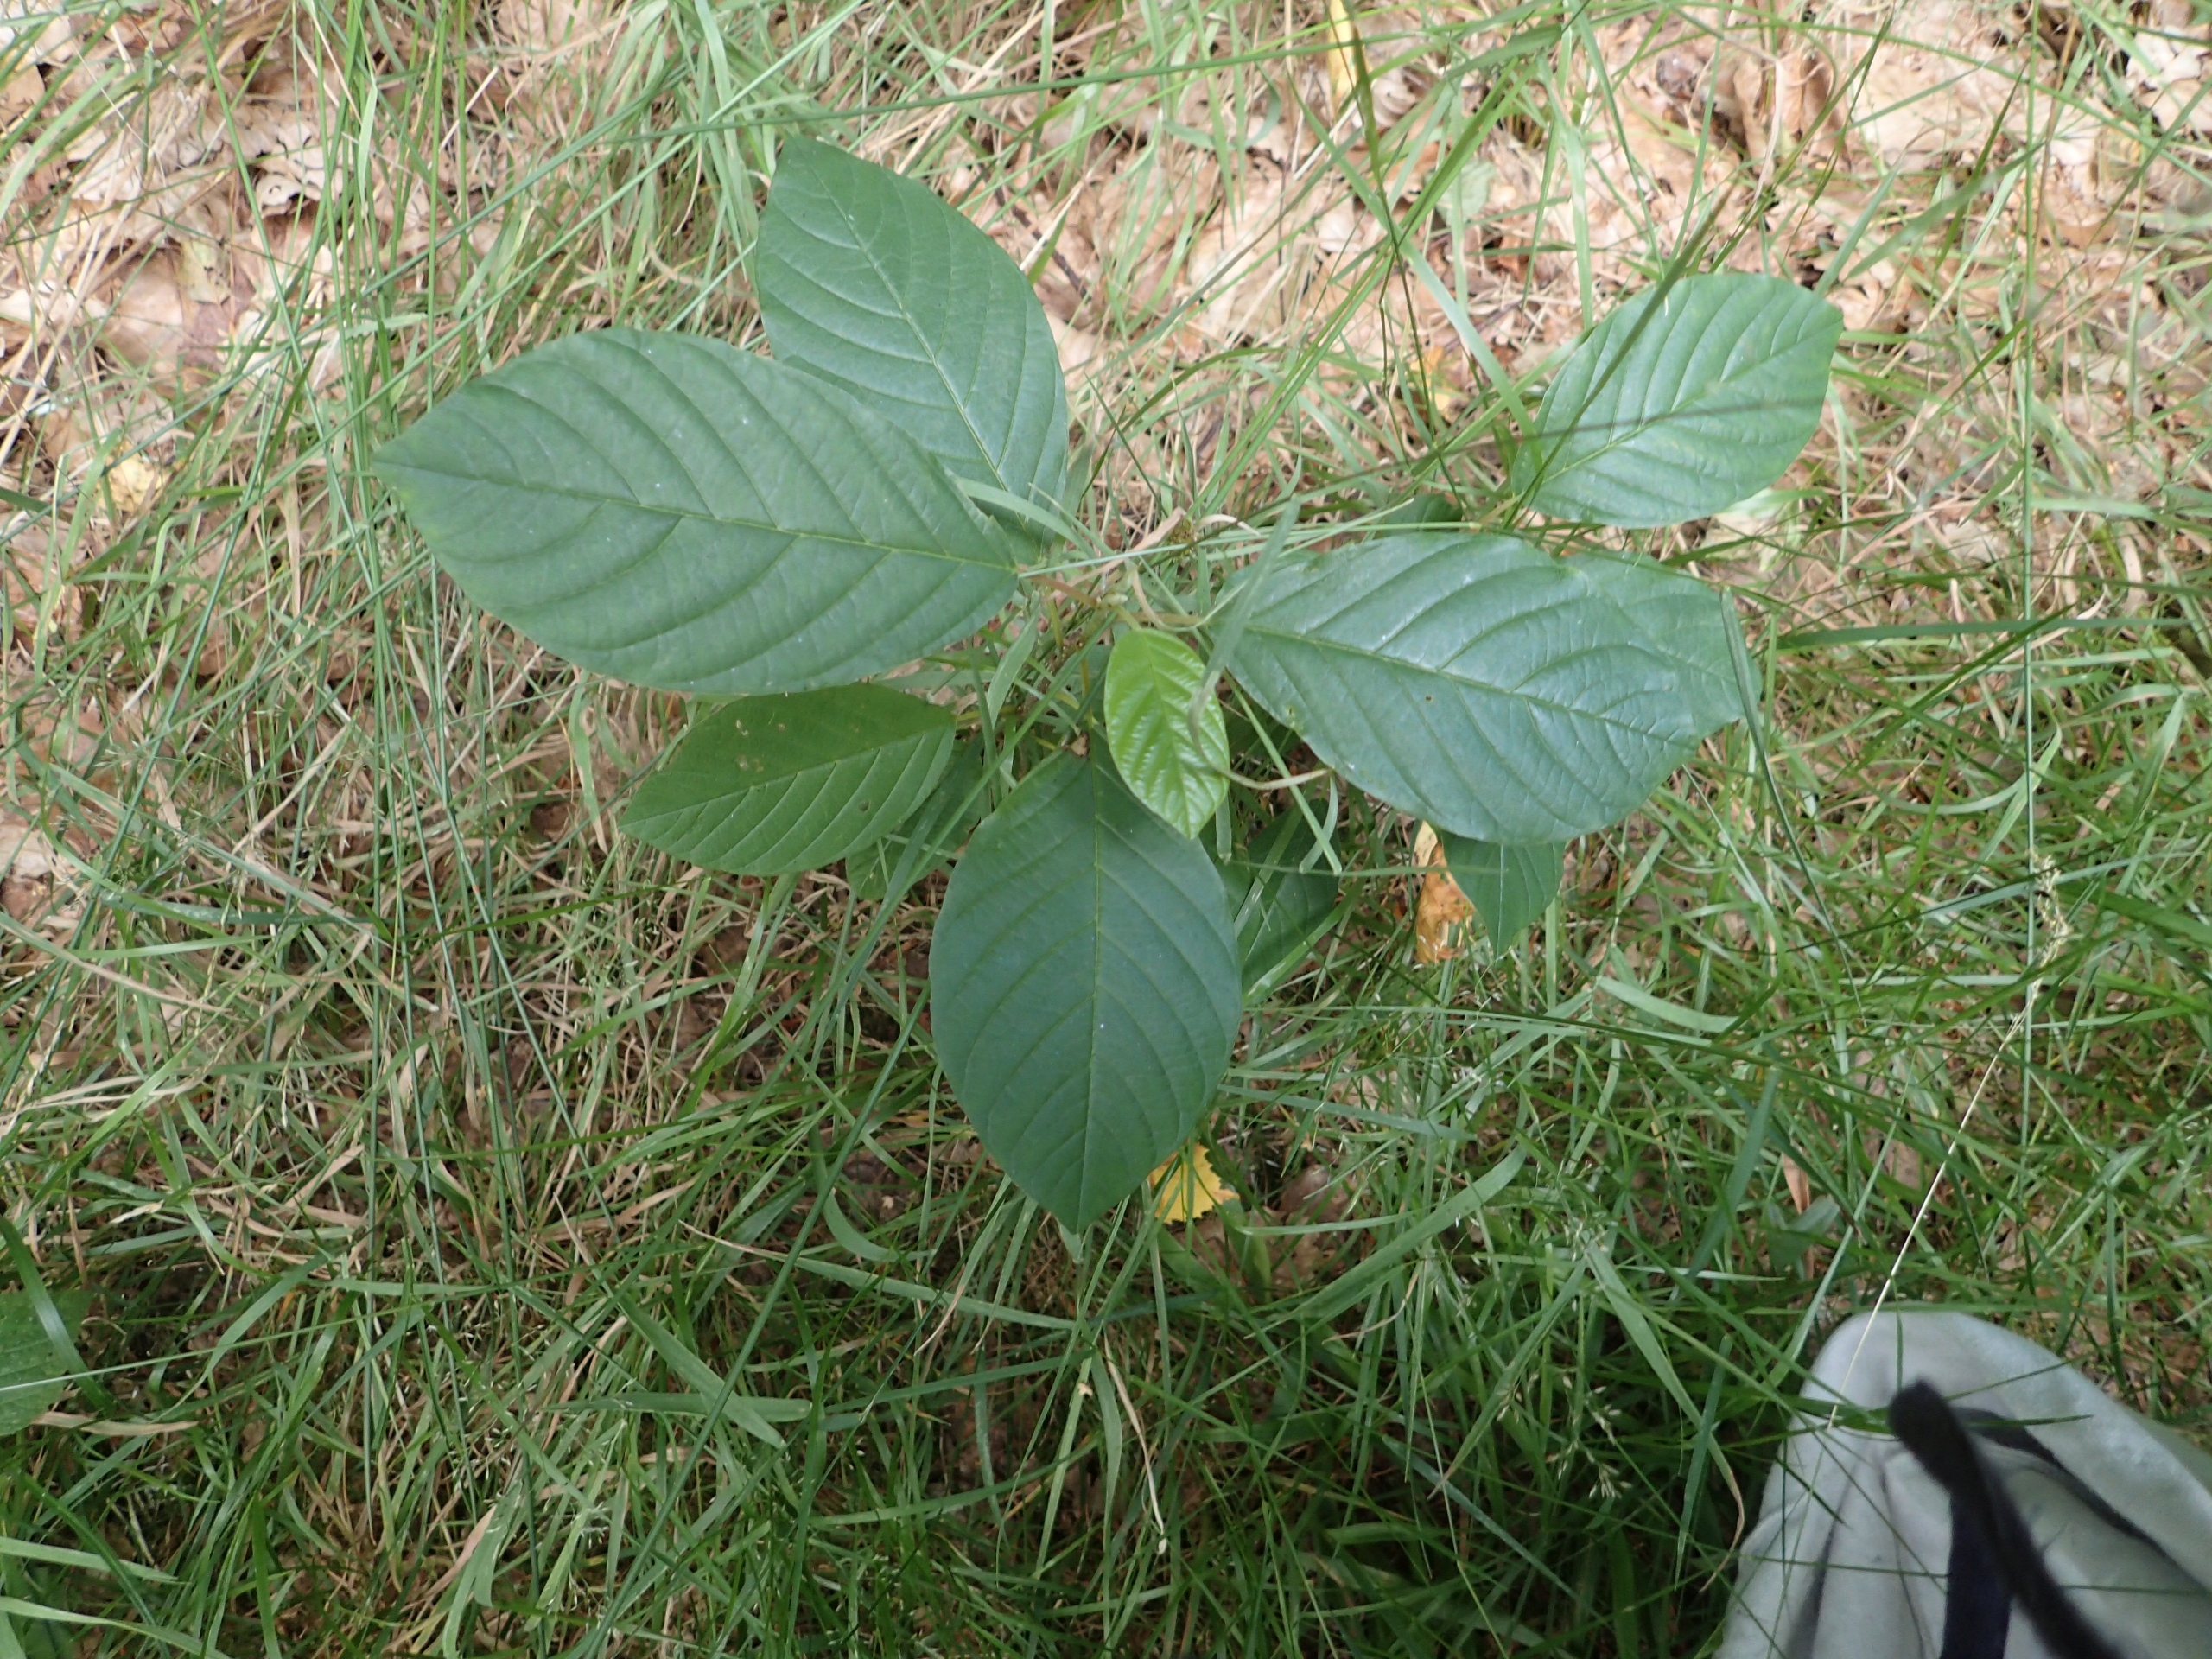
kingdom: Plantae
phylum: Tracheophyta
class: Magnoliopsida
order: Rosales
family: Rhamnaceae
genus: Frangula
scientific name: Frangula alnus
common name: Tørst
